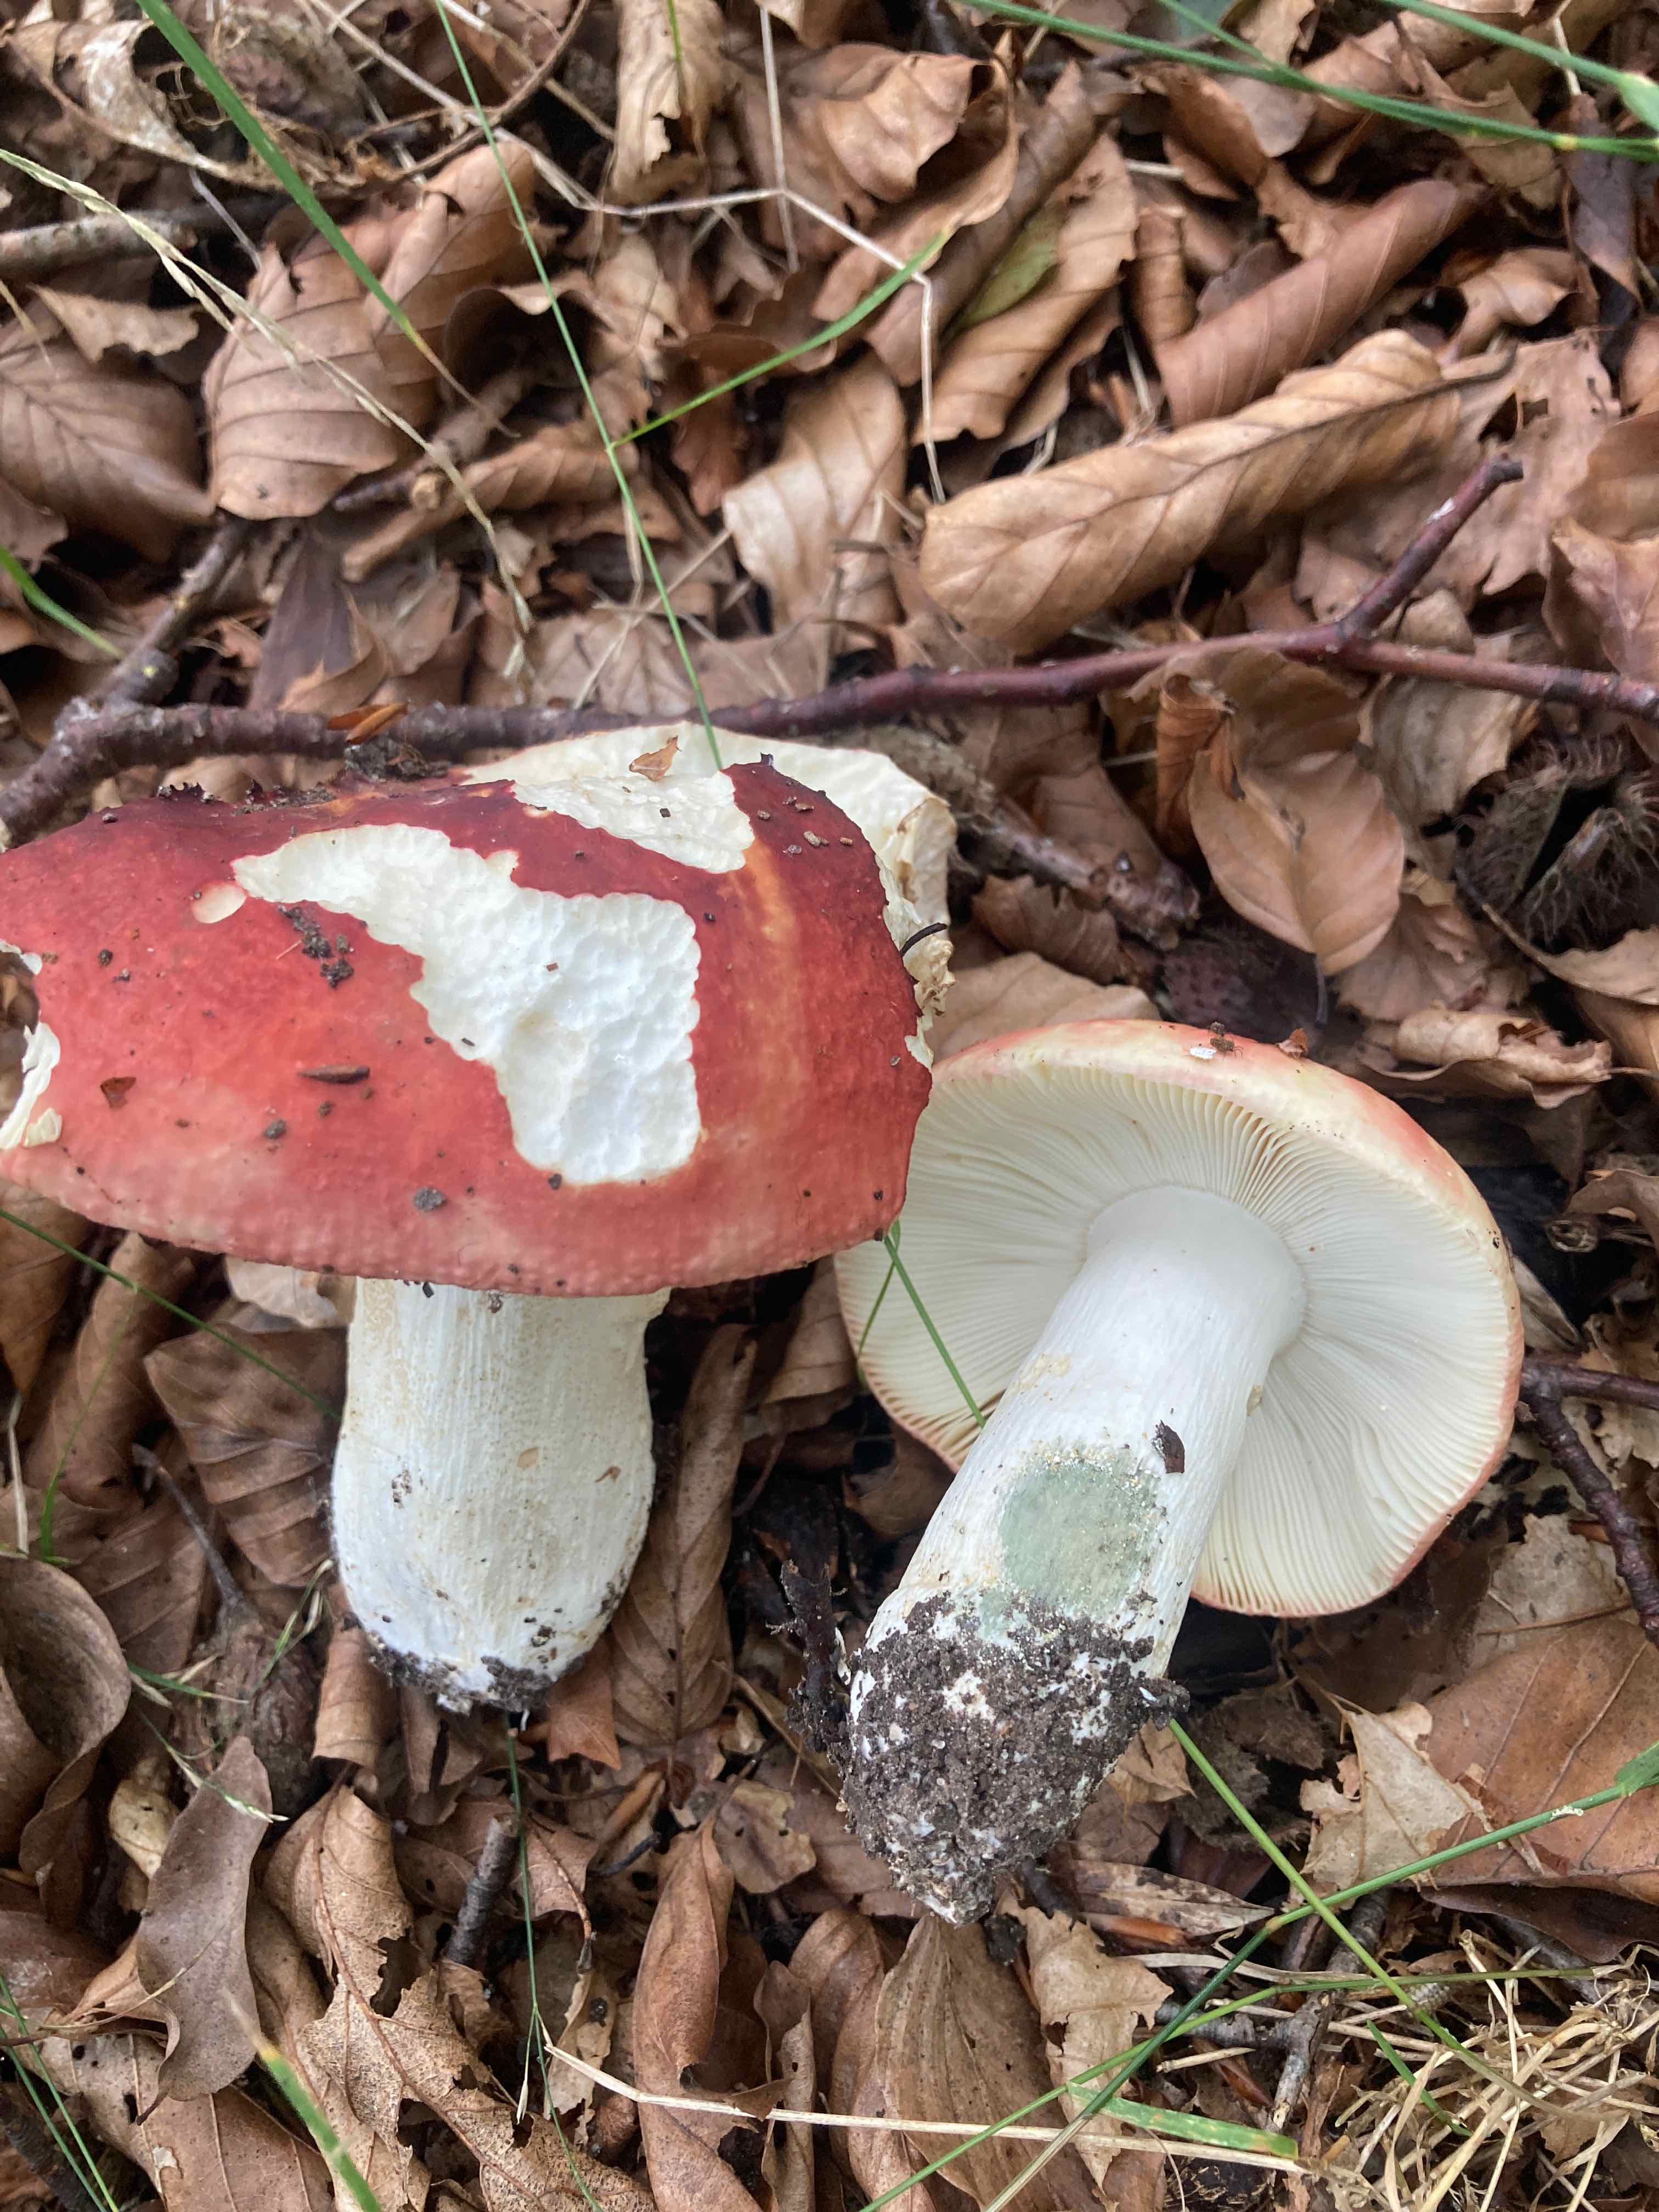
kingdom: Fungi
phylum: Basidiomycota
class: Agaricomycetes
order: Russulales
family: Russulaceae
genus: Russula
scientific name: Russula faginea
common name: bøge-skørhat
